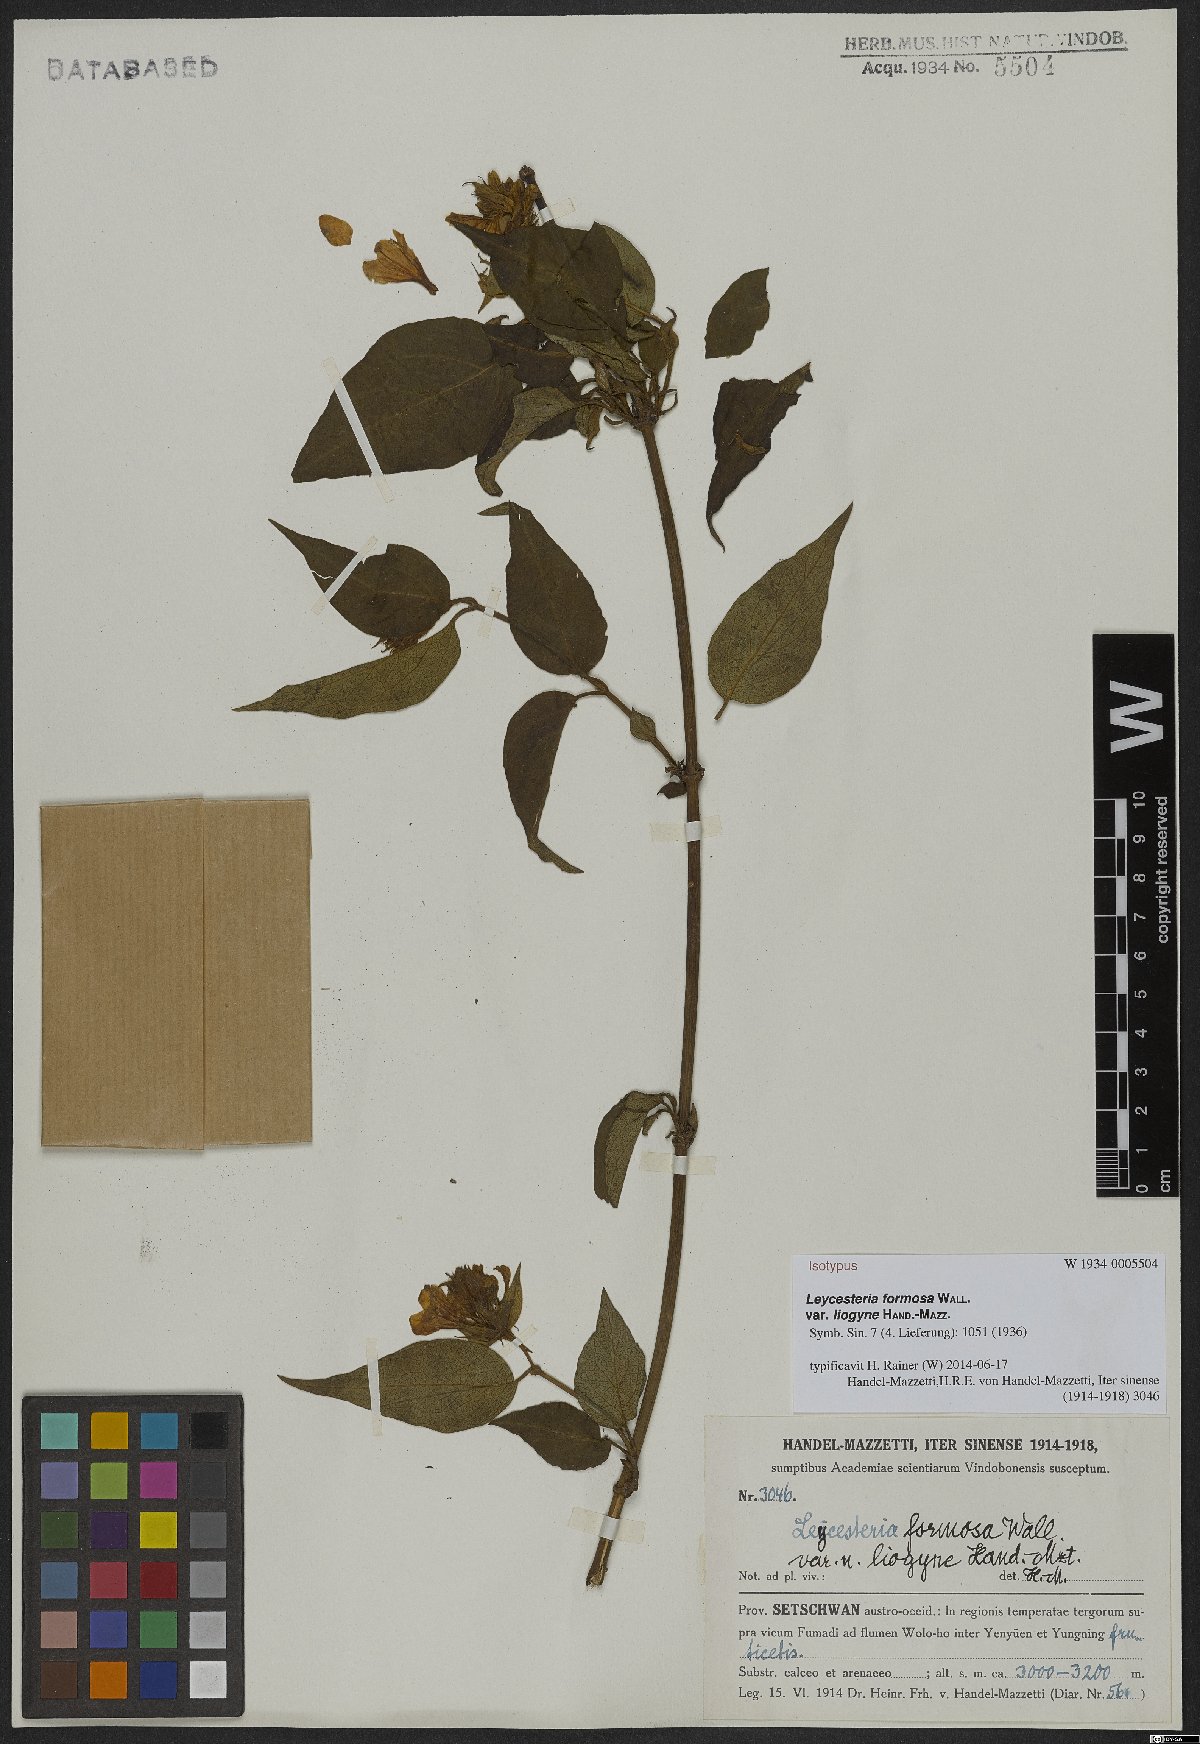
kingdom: Plantae
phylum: Tracheophyta
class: Magnoliopsida
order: Dipsacales
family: Caprifoliaceae
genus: Leycesteria
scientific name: Leycesteria formosa
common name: Himalayan honeysuckle
